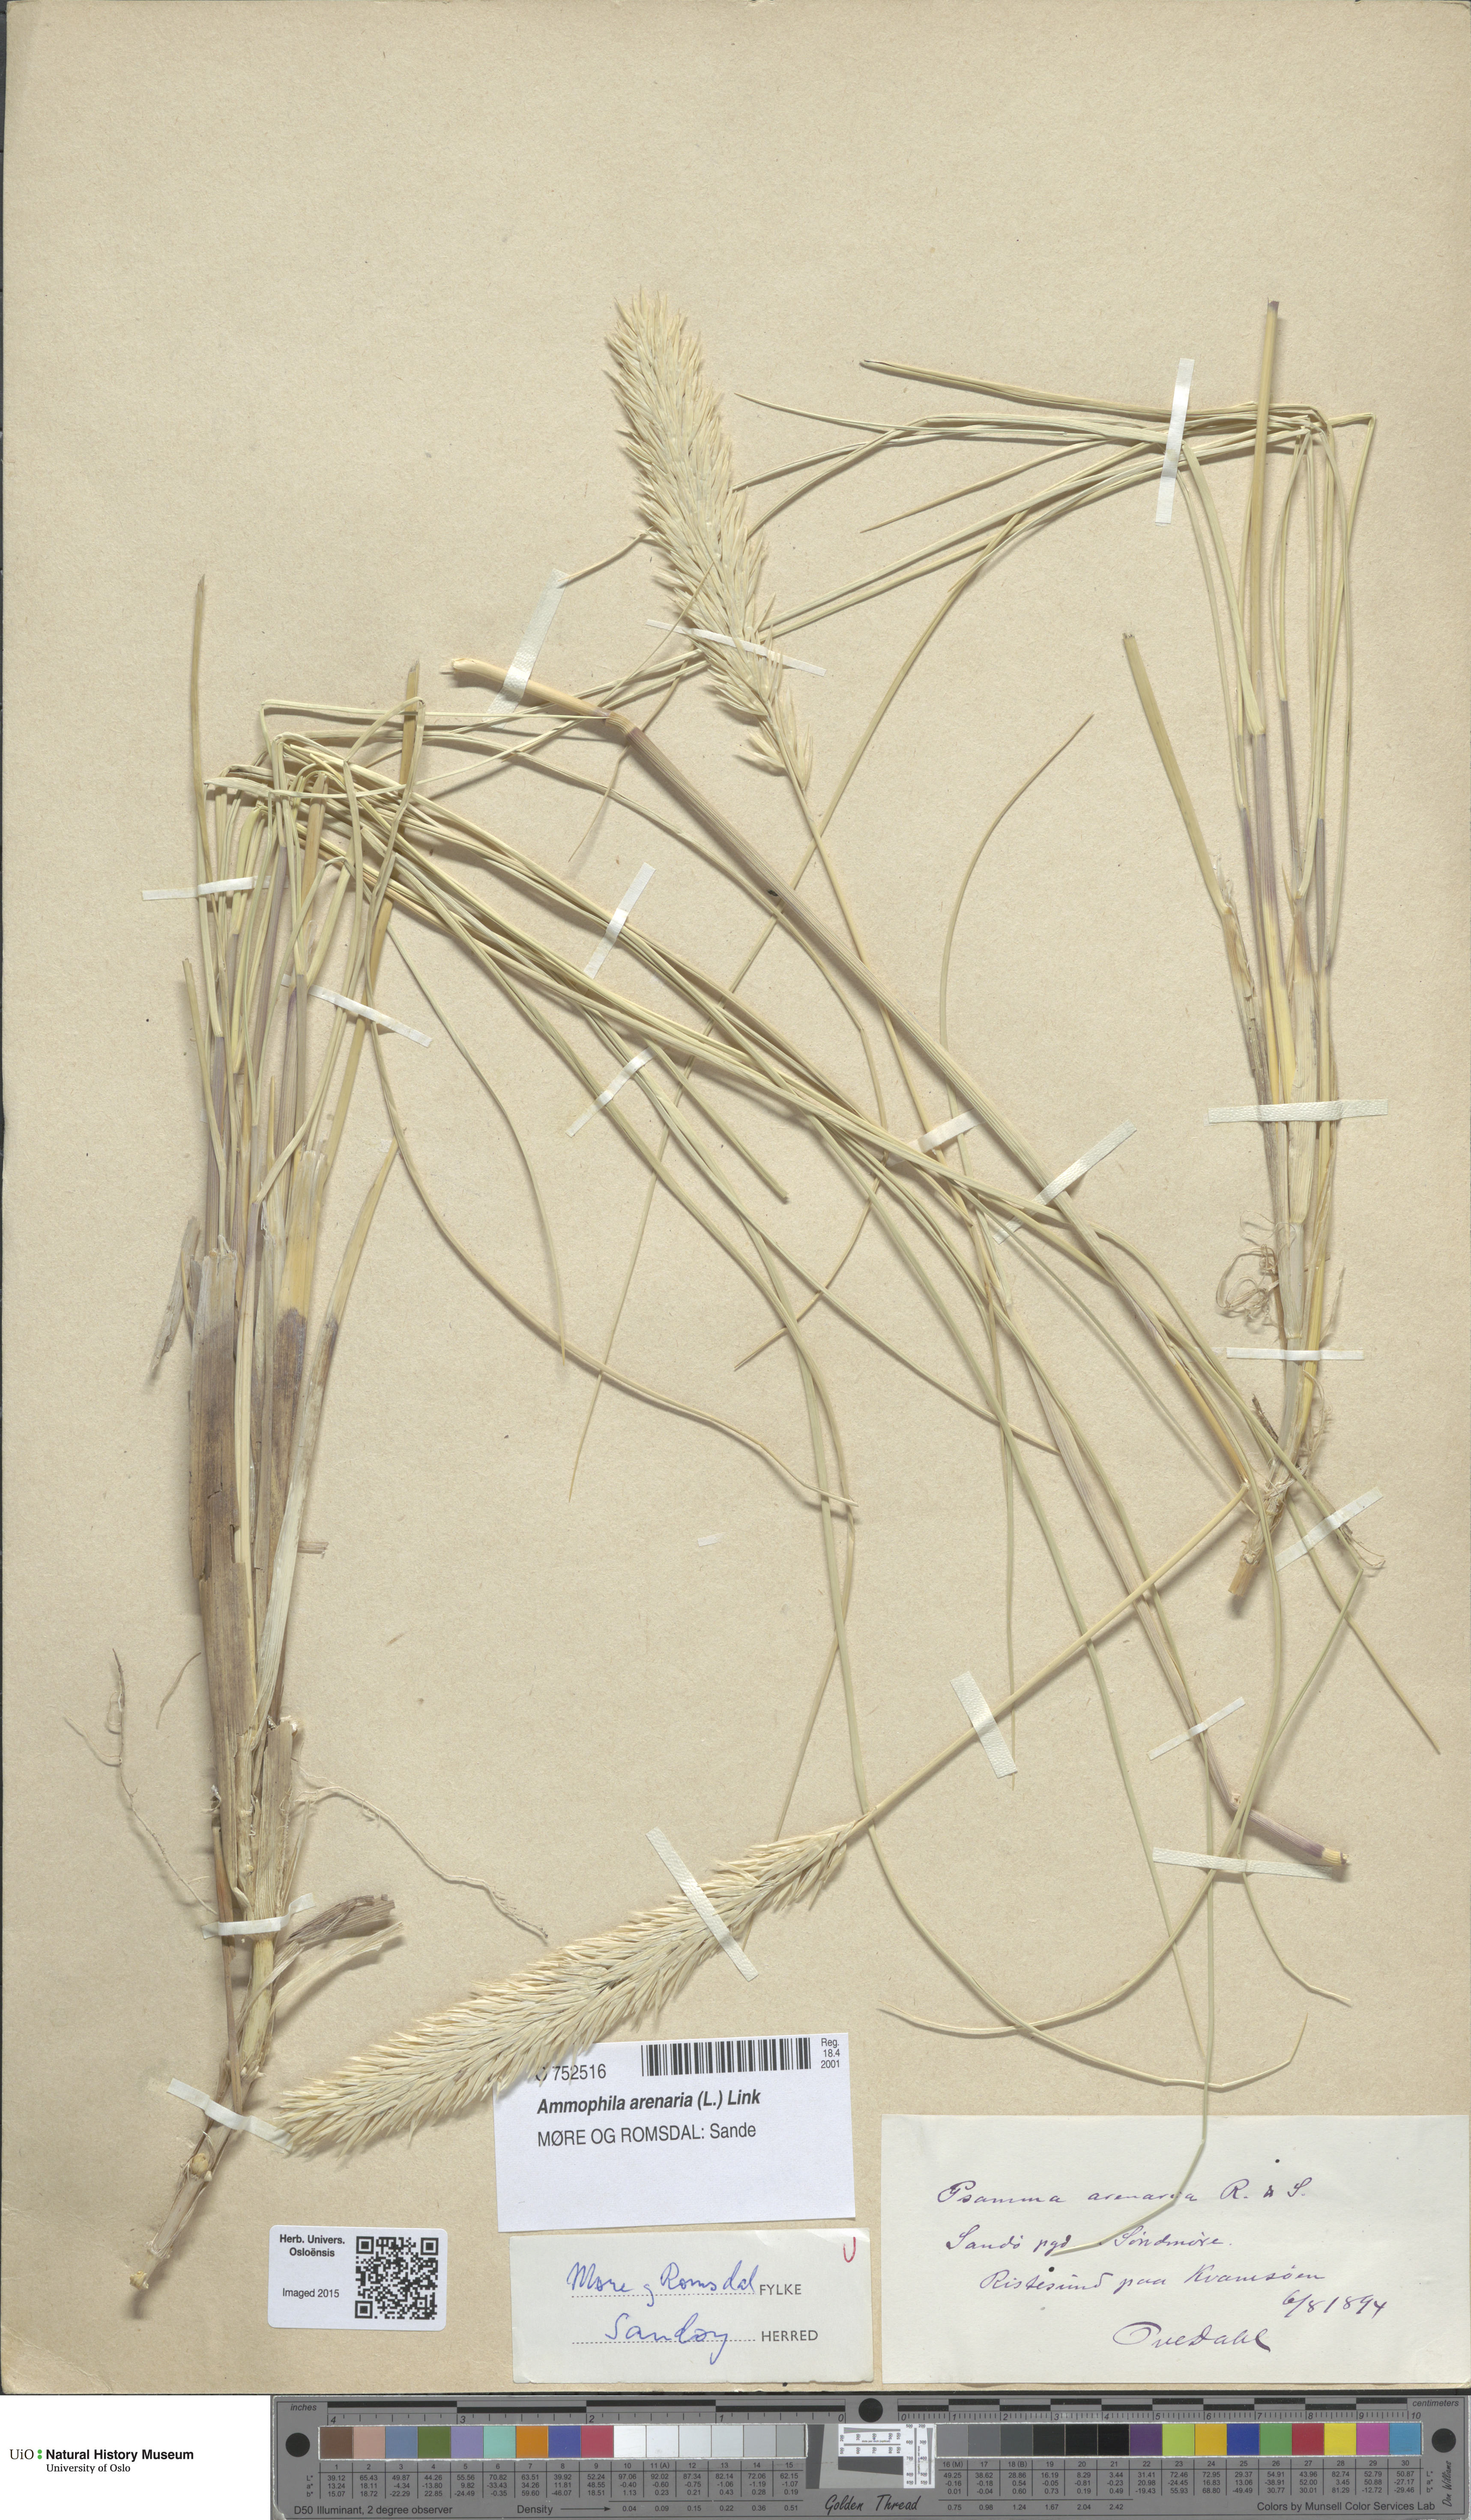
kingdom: Plantae
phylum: Tracheophyta
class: Liliopsida
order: Poales
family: Poaceae
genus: Calamagrostis
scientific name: Calamagrostis arenaria
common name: European beachgrass
